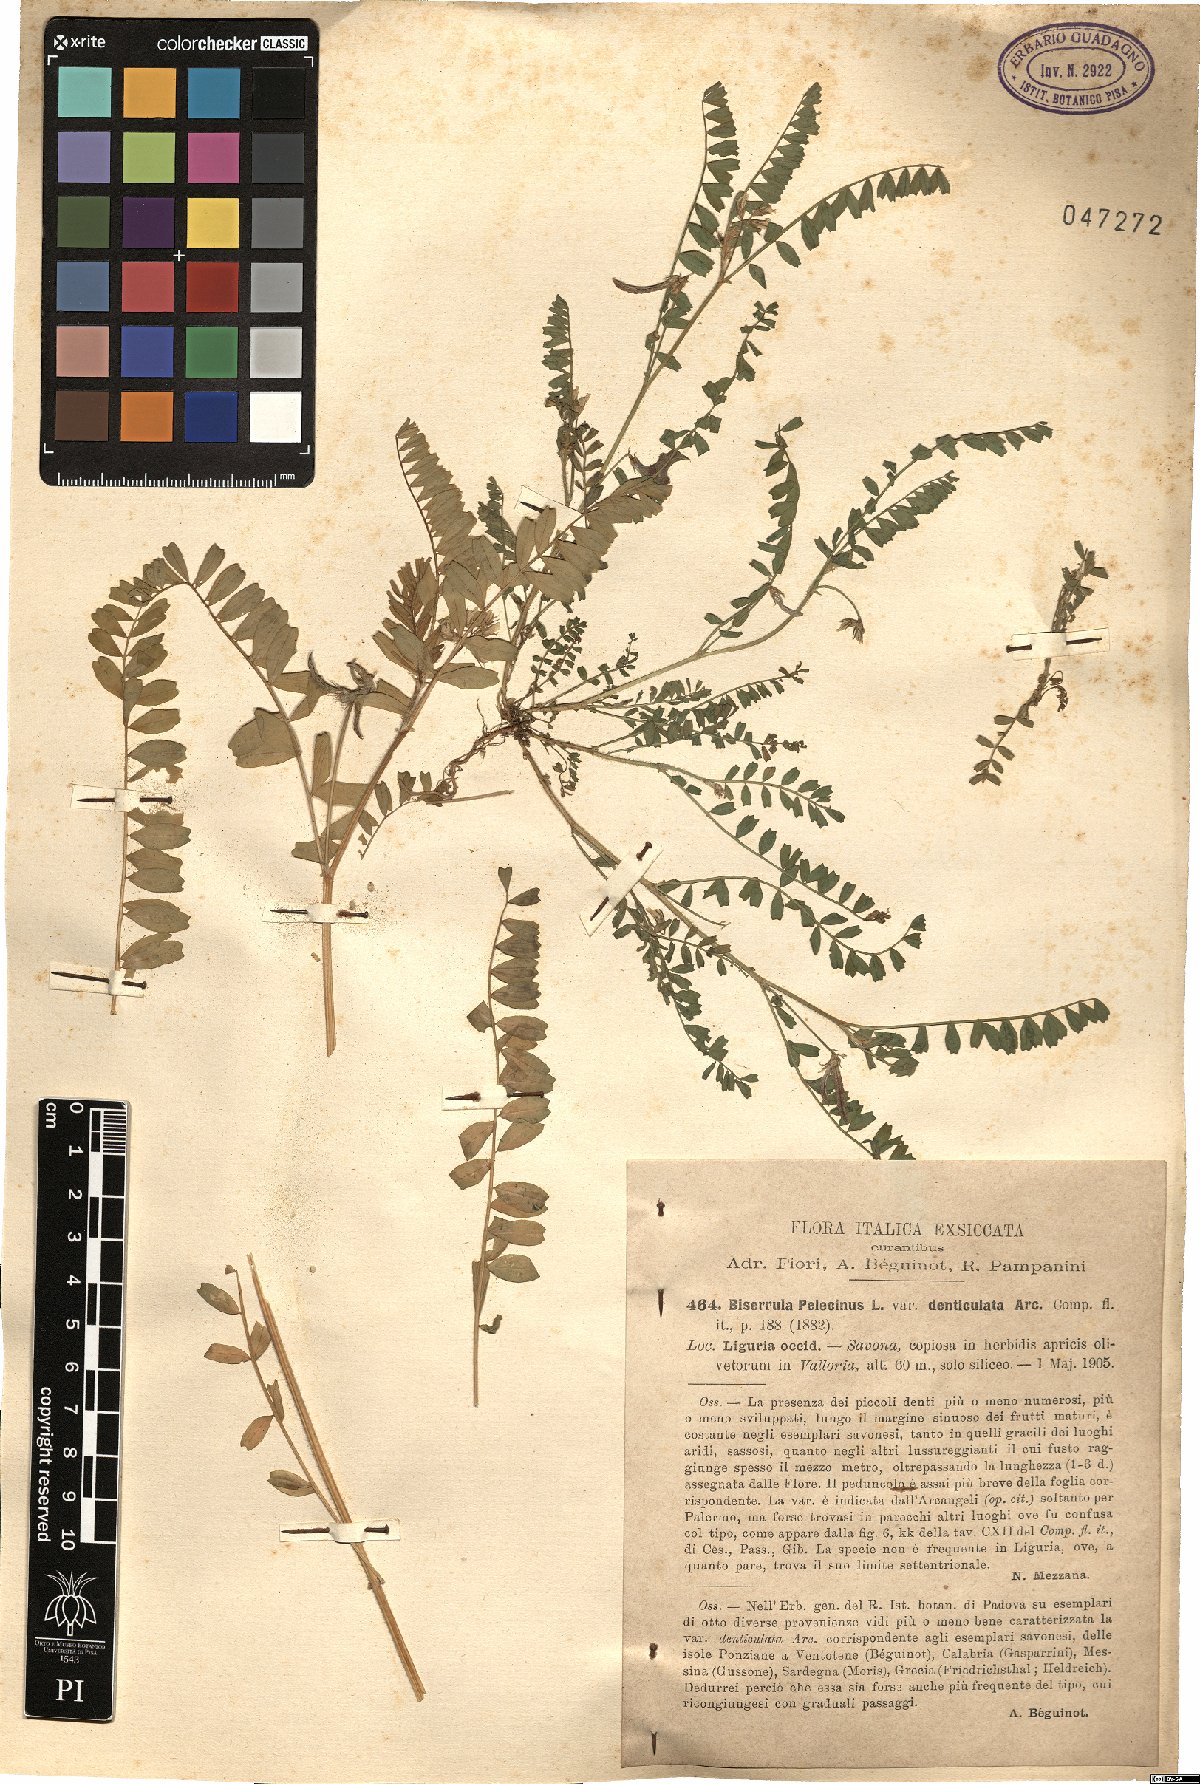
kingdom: Plantae
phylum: Tracheophyta
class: Magnoliopsida
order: Fabales
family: Fabaceae
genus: Biserrula
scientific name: Biserrula pelecinus
